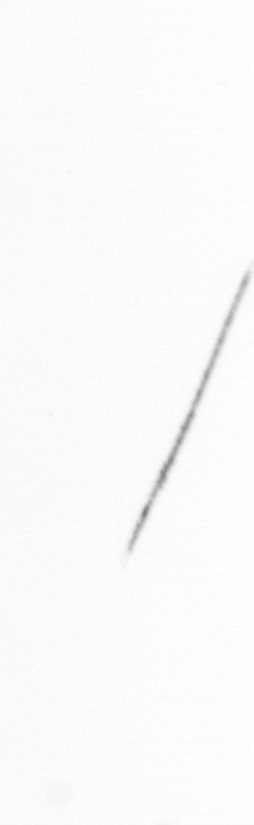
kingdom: Chromista
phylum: Ochrophyta
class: Bacillariophyceae
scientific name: Bacillariophyceae
